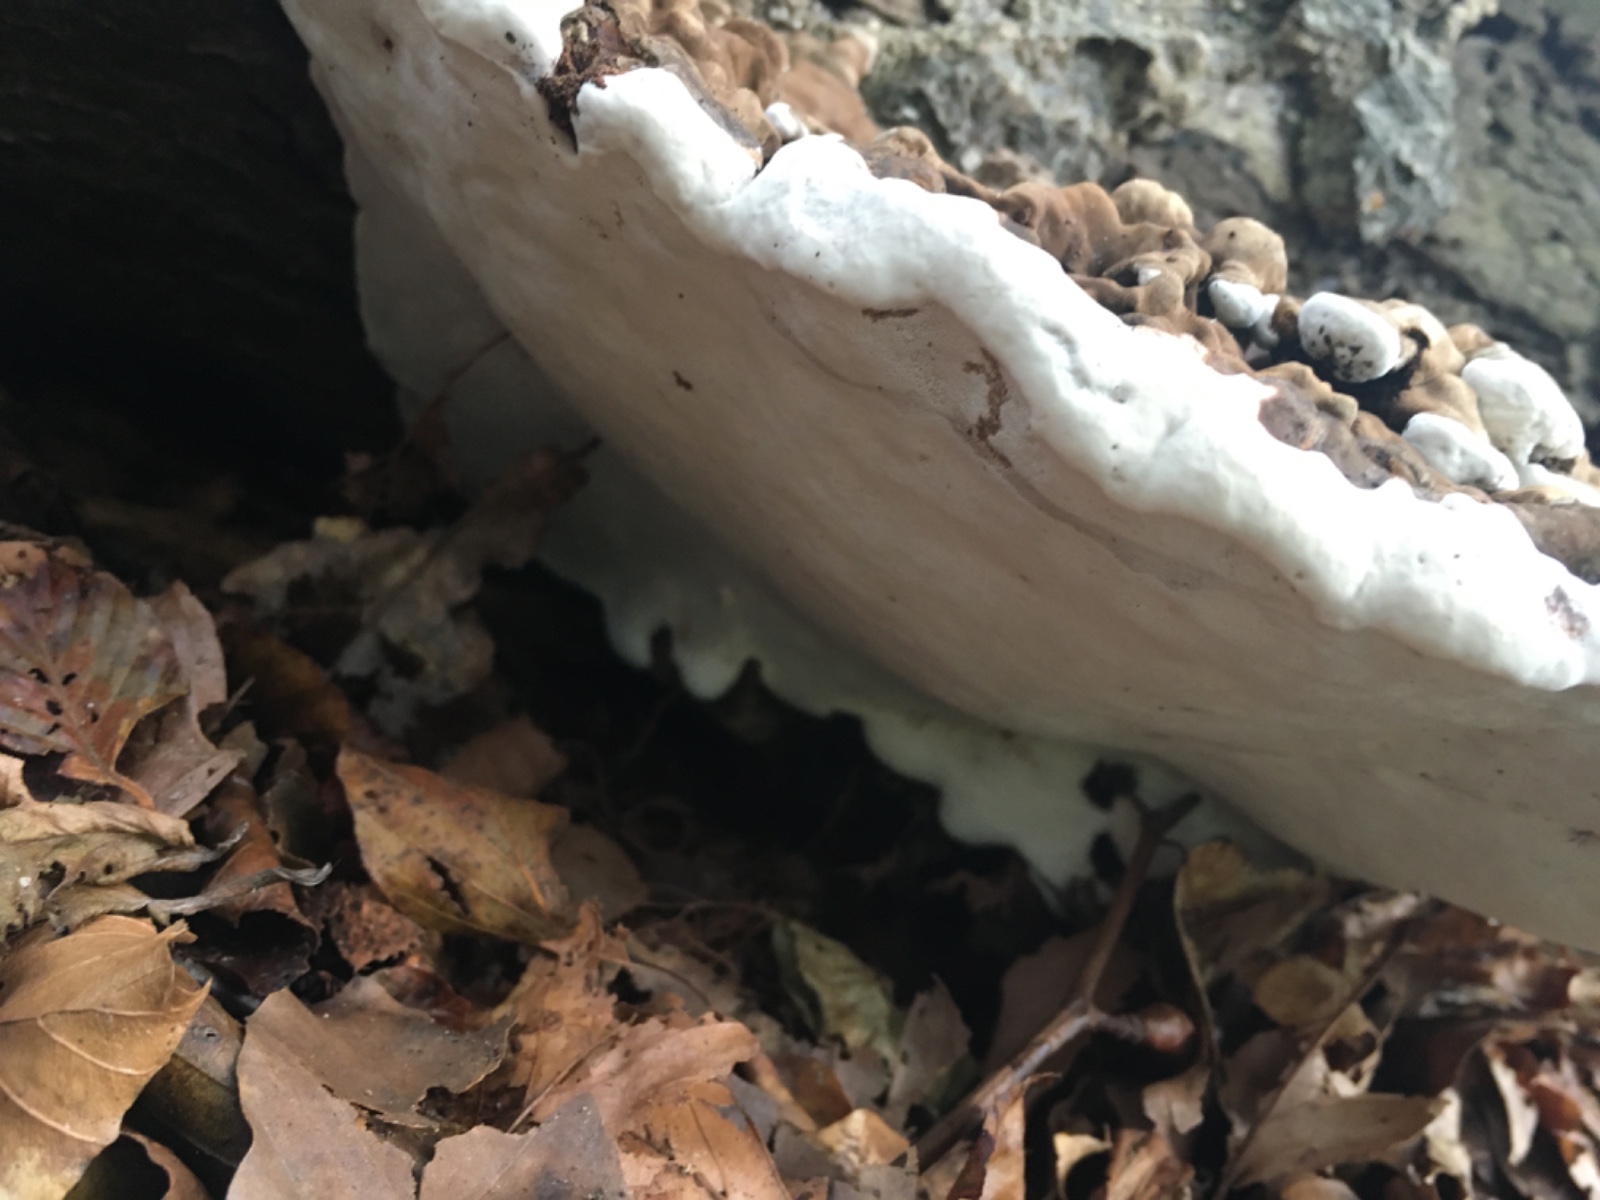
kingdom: Fungi
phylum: Basidiomycota
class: Agaricomycetes
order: Polyporales
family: Polyporaceae
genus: Ganoderma
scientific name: Ganoderma applanatum
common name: flad lakporesvamp
